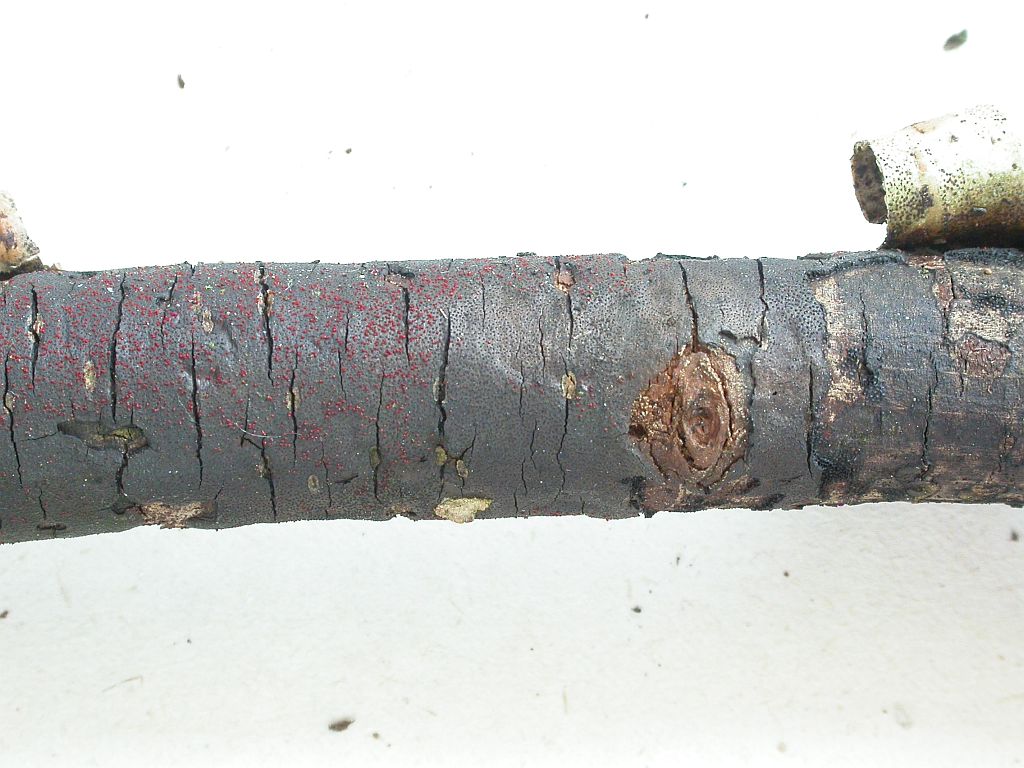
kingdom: Fungi
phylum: Ascomycota
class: Sordariomycetes
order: Xylariales
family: Diatrypaceae
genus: Diatrype
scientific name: Diatrype stigma
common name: udbredt kulskorpe
